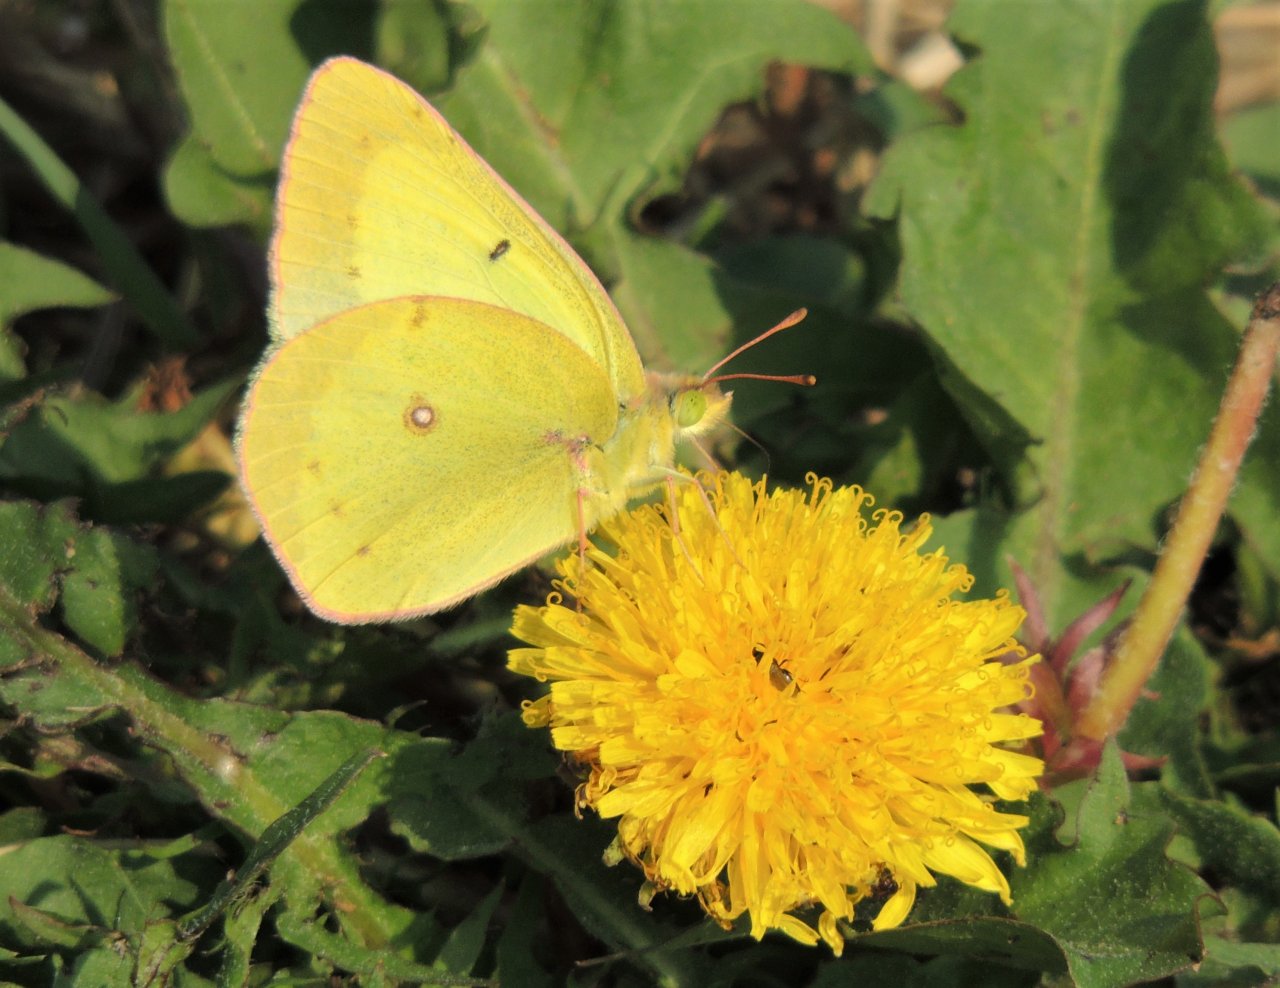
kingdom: Animalia
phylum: Arthropoda
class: Insecta
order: Lepidoptera
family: Pieridae
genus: Colias
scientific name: Colias eurytheme
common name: Orange Sulphur
